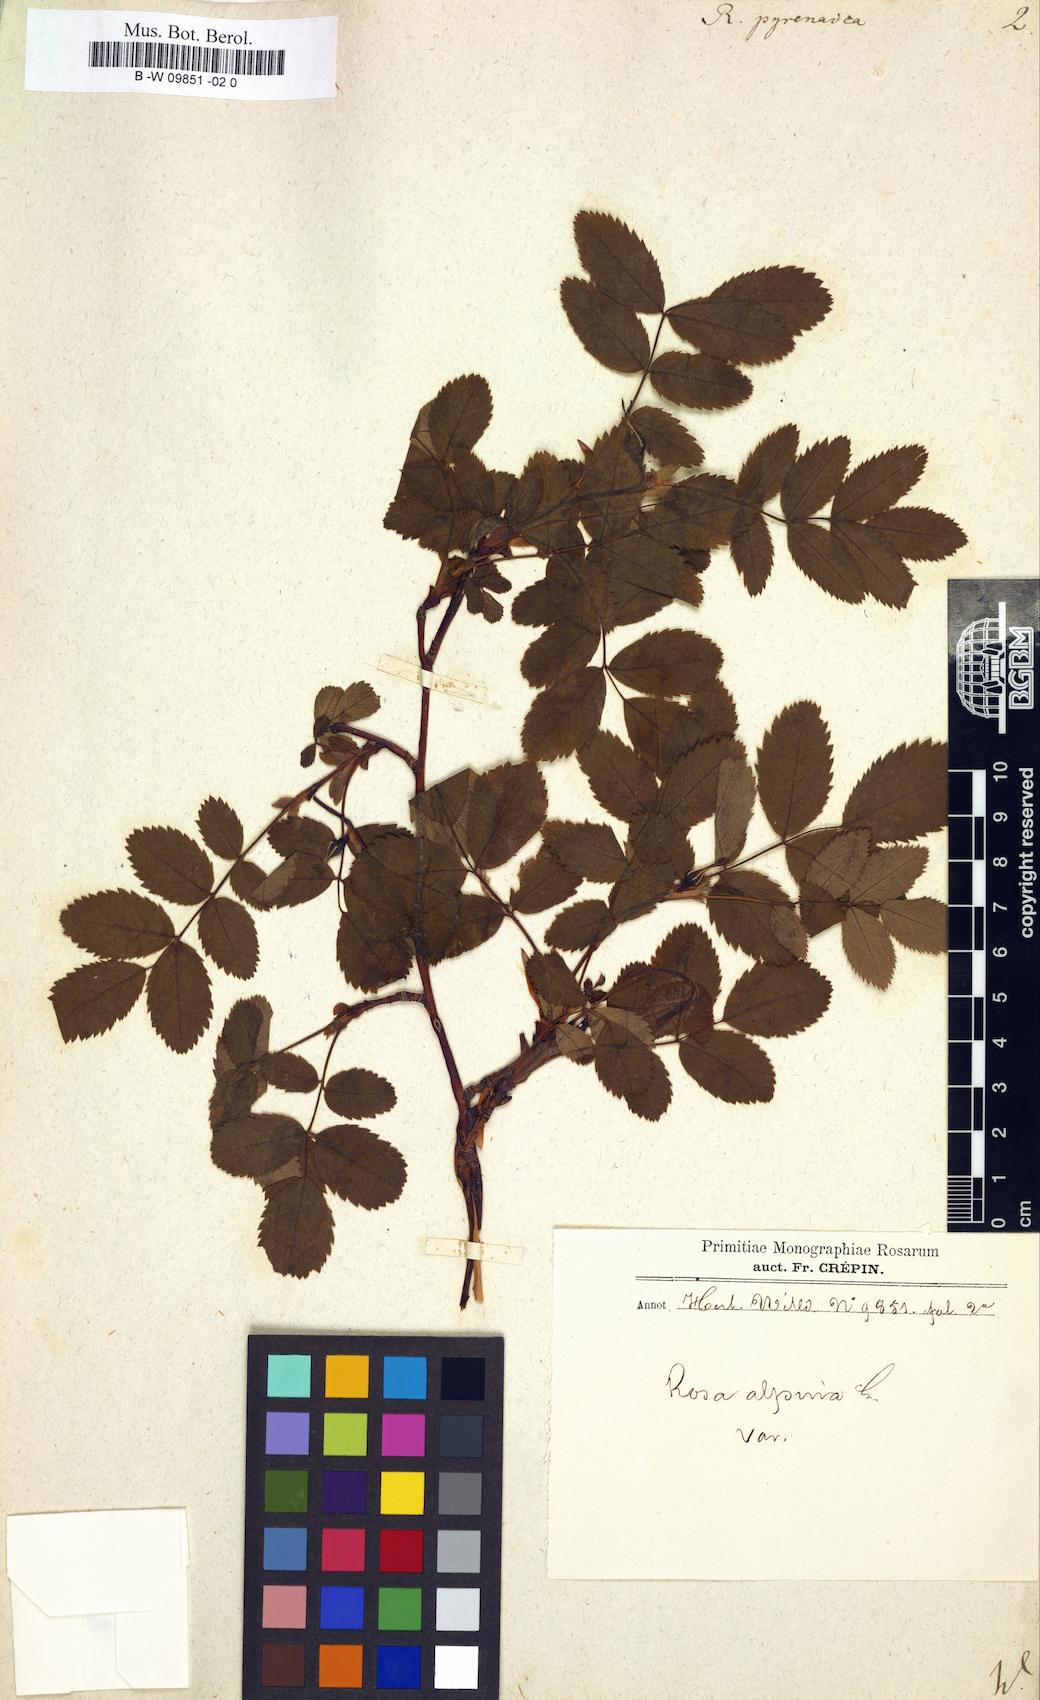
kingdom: Plantae
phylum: Tracheophyta
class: Magnoliopsida
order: Rosales
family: Rosaceae
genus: Rosa
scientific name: Rosa pendulina
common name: Alpine rose
